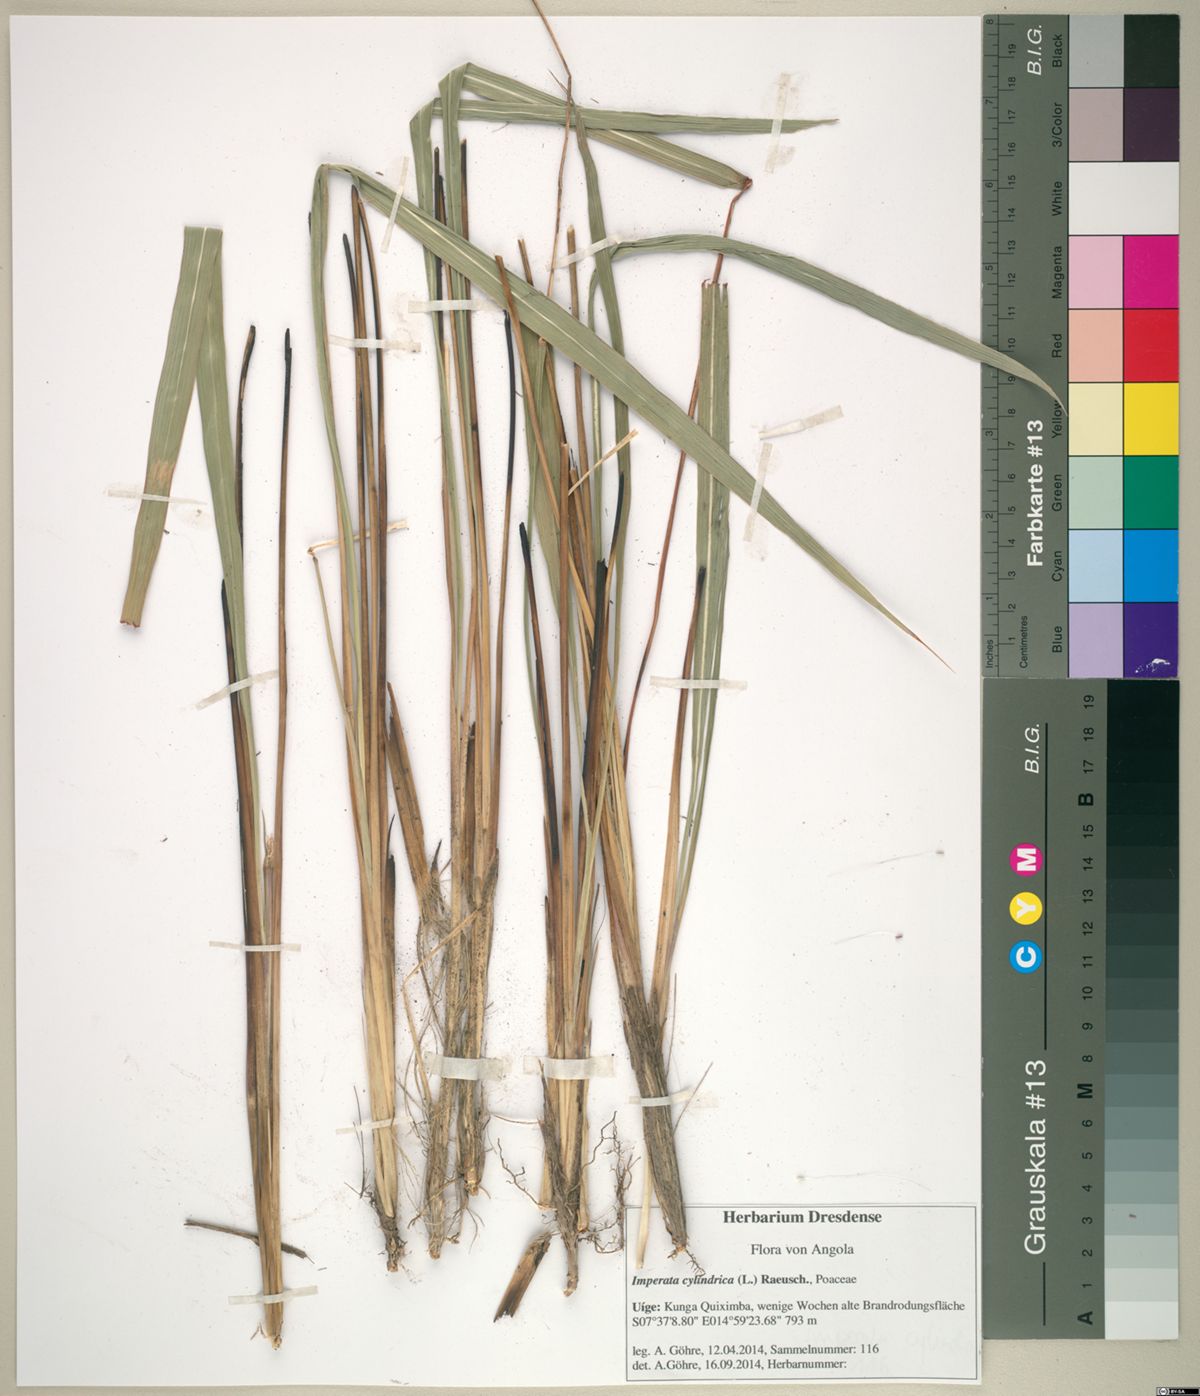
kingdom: Plantae
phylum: Tracheophyta
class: Liliopsida
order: Poales
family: Poaceae
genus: Imperata
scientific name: Imperata cylindrica
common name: Cogongrass
